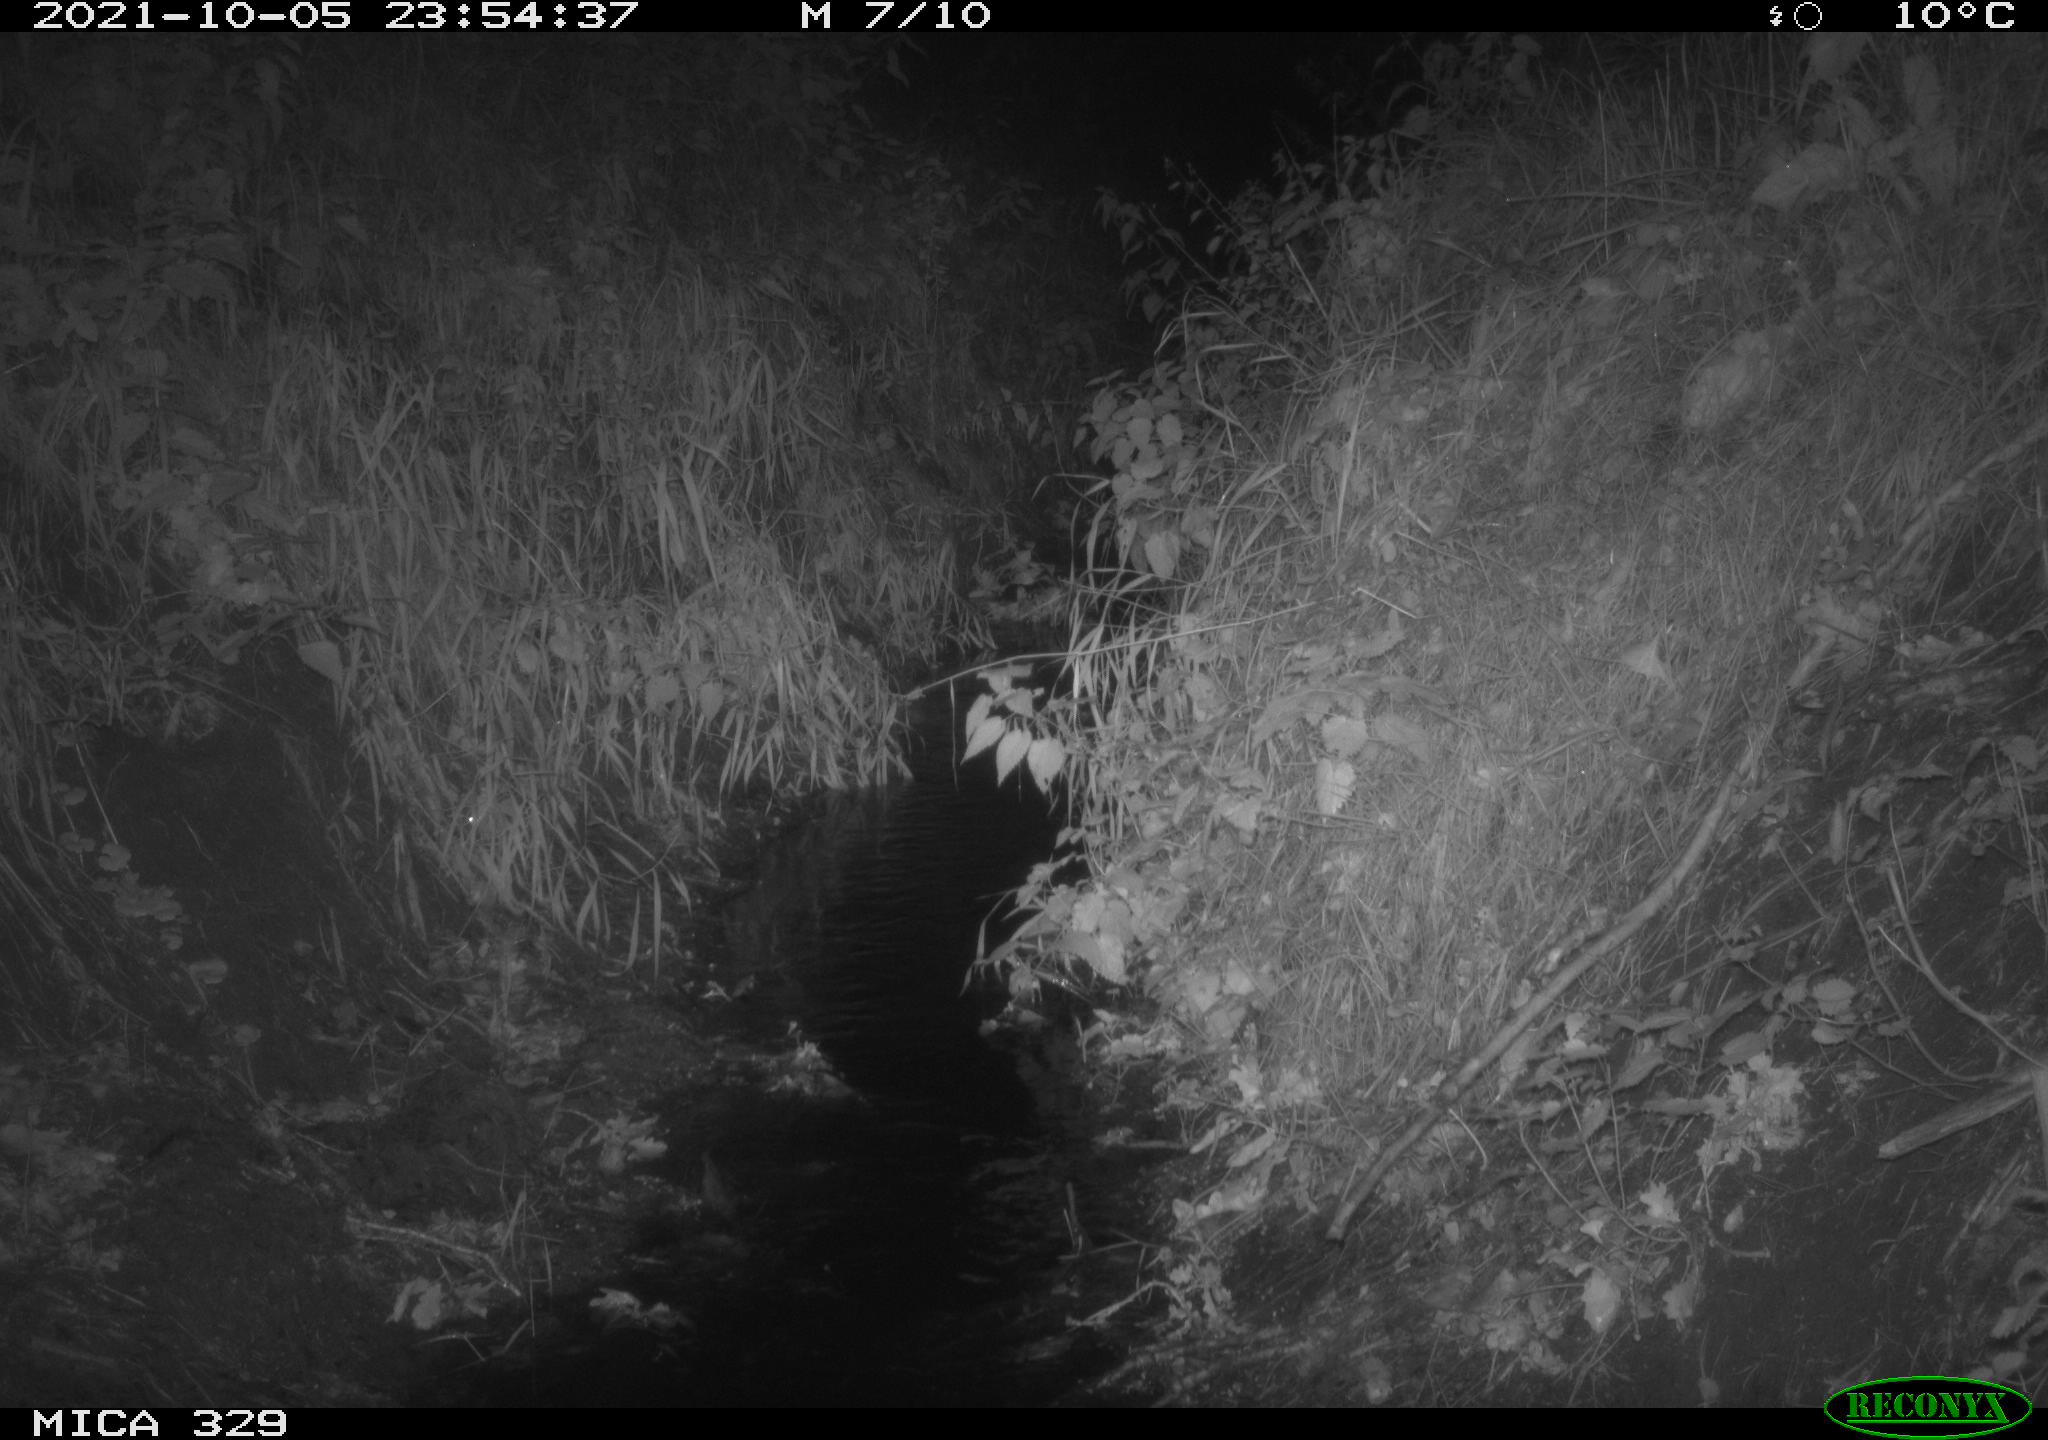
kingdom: Animalia
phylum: Chordata
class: Mammalia
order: Rodentia
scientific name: Rodentia
